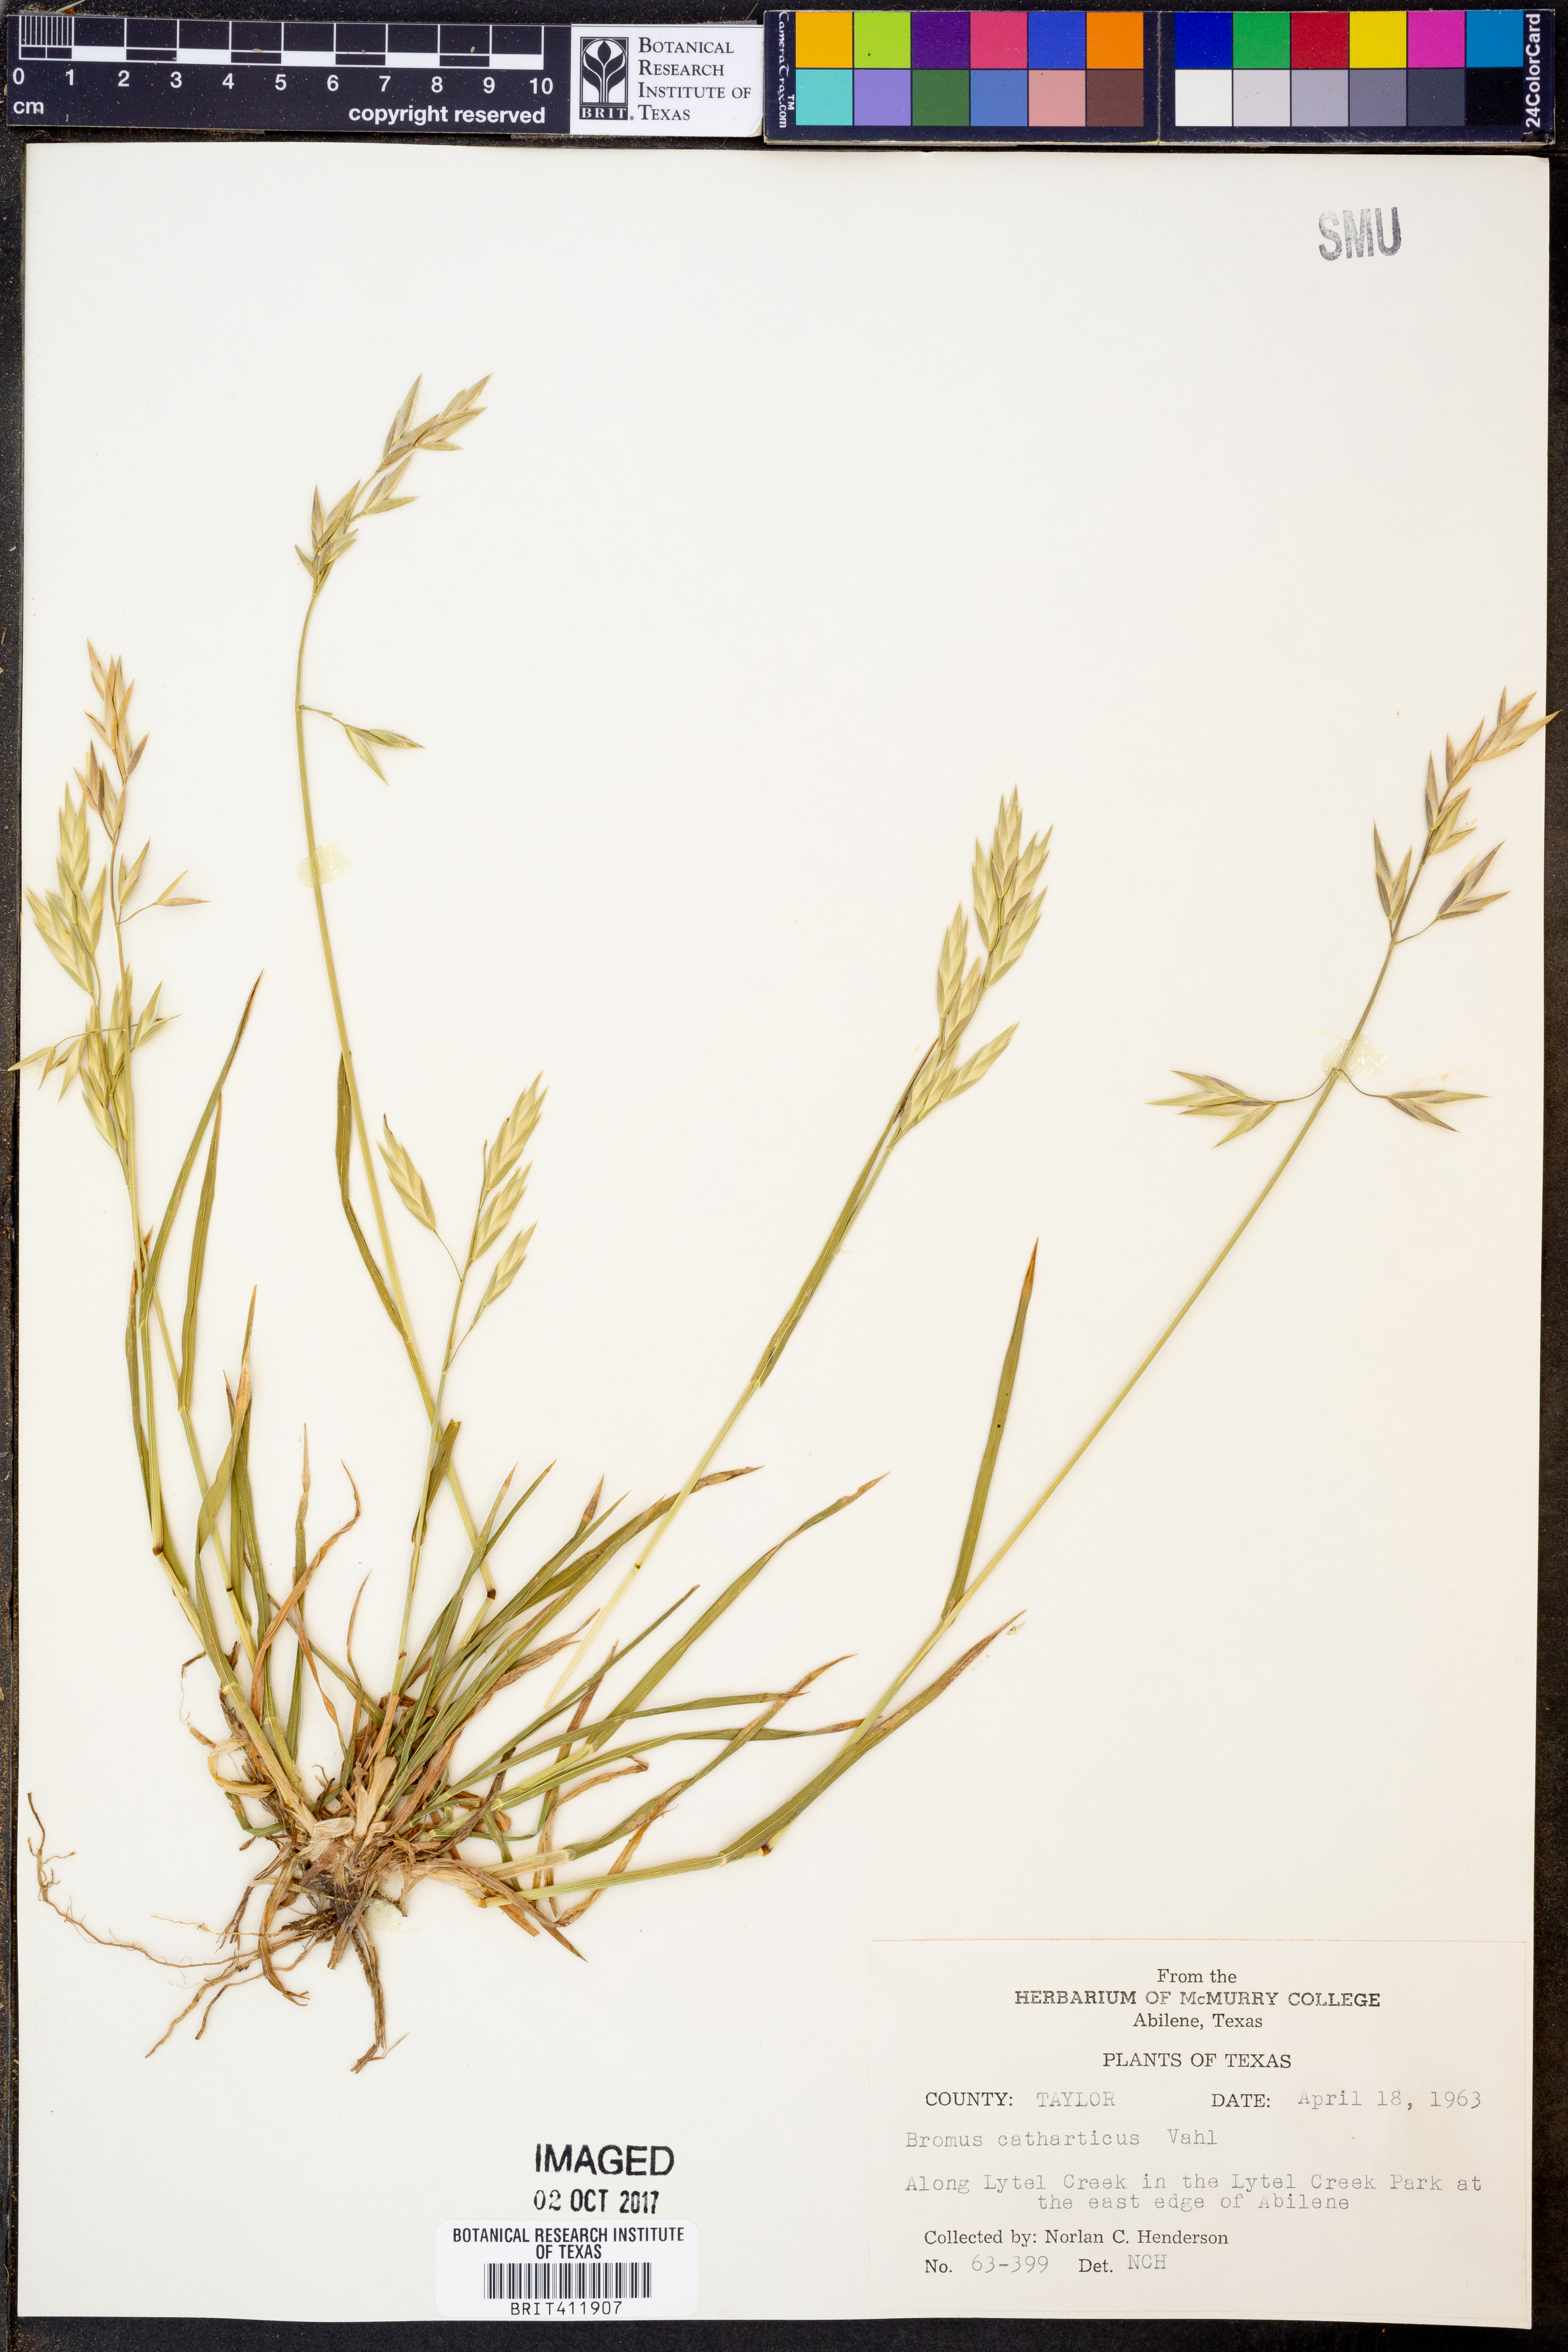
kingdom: Plantae
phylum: Tracheophyta
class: Liliopsida
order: Poales
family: Poaceae
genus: Bromus
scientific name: Bromus catharticus
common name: Rescuegrass
